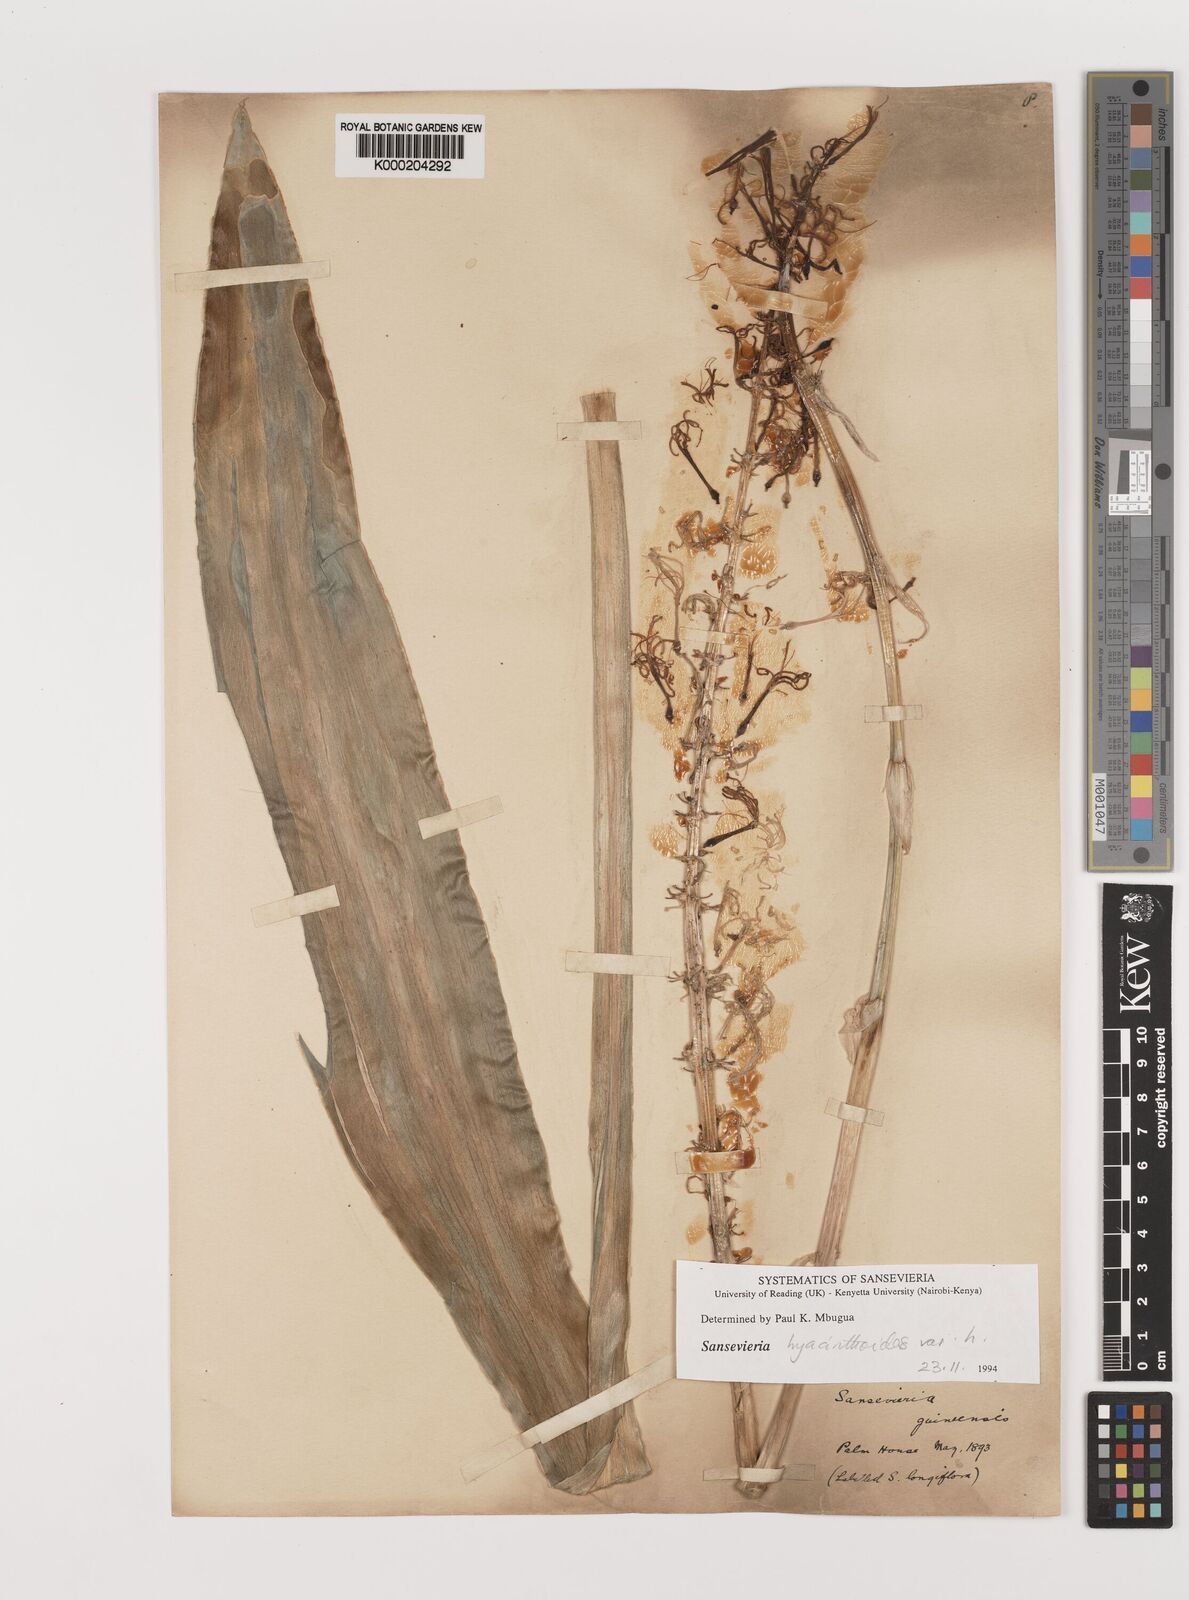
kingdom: Plantae
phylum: Tracheophyta
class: Liliopsida
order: Asparagales
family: Asparagaceae
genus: Dracaena
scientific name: Dracaena hyacinthoides
